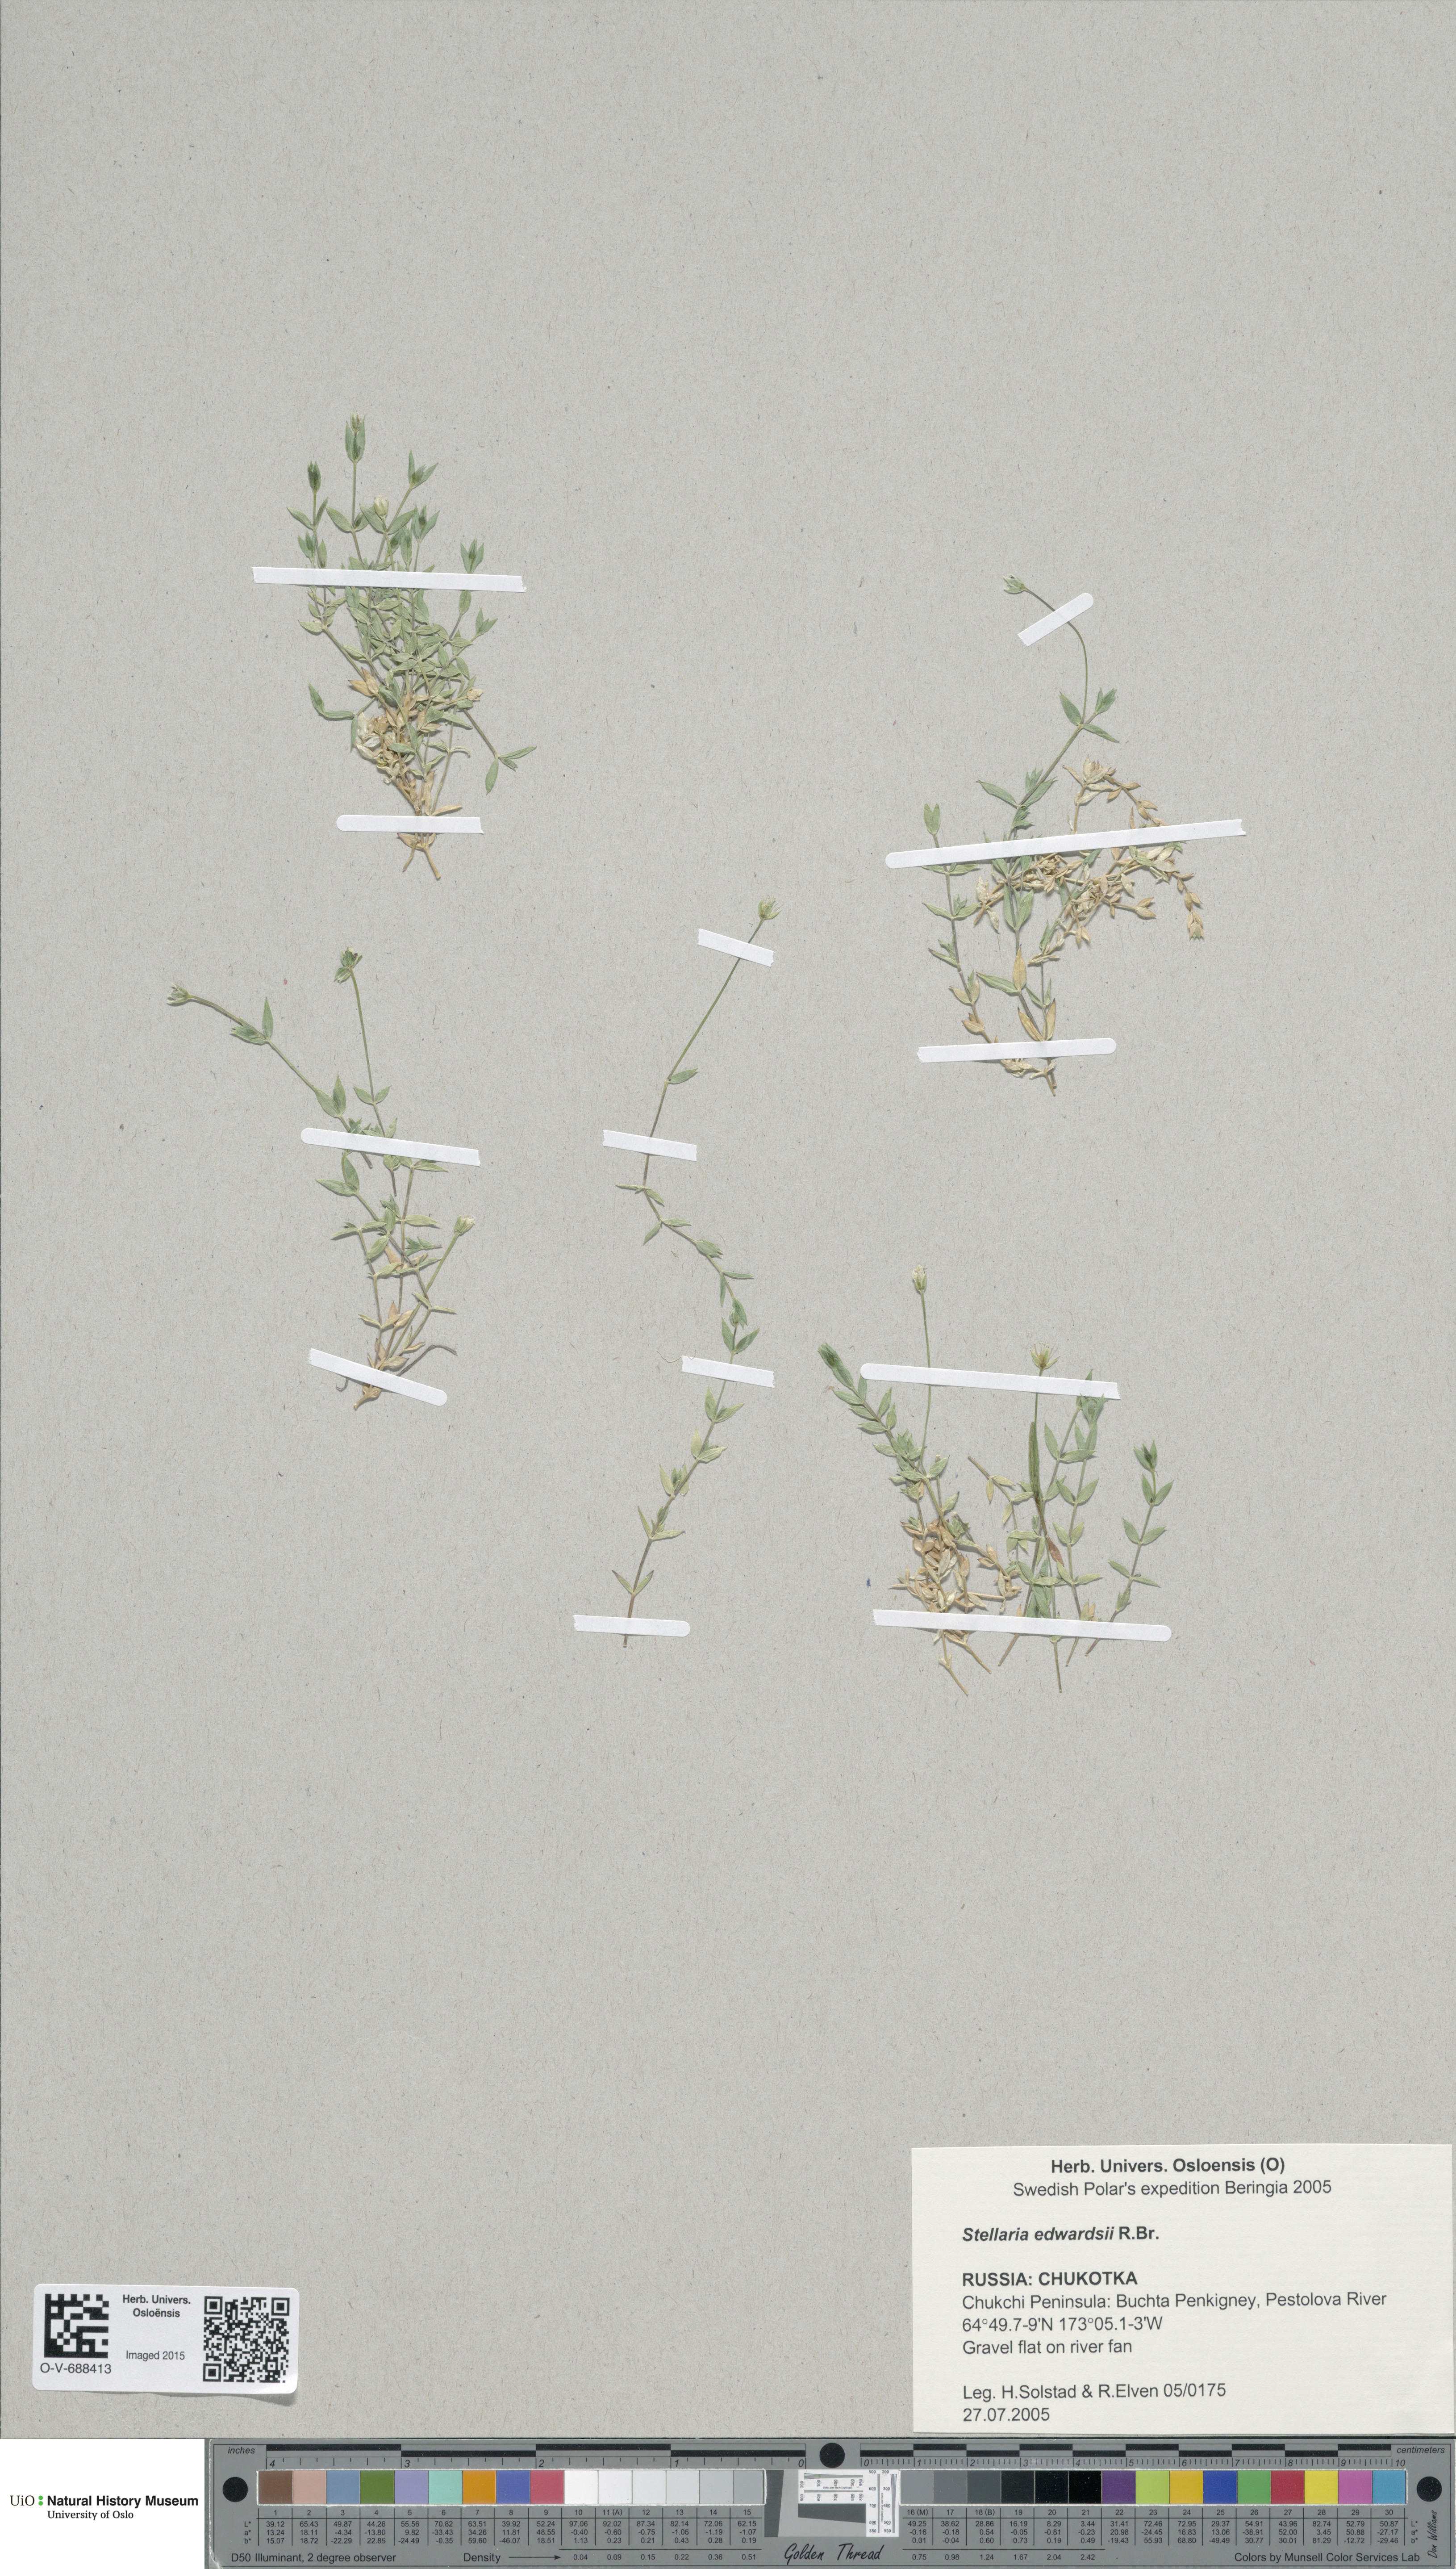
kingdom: Plantae
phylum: Tracheophyta
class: Magnoliopsida
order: Caryophyllales
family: Caryophyllaceae
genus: Stellaria
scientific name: Stellaria edwardsii
